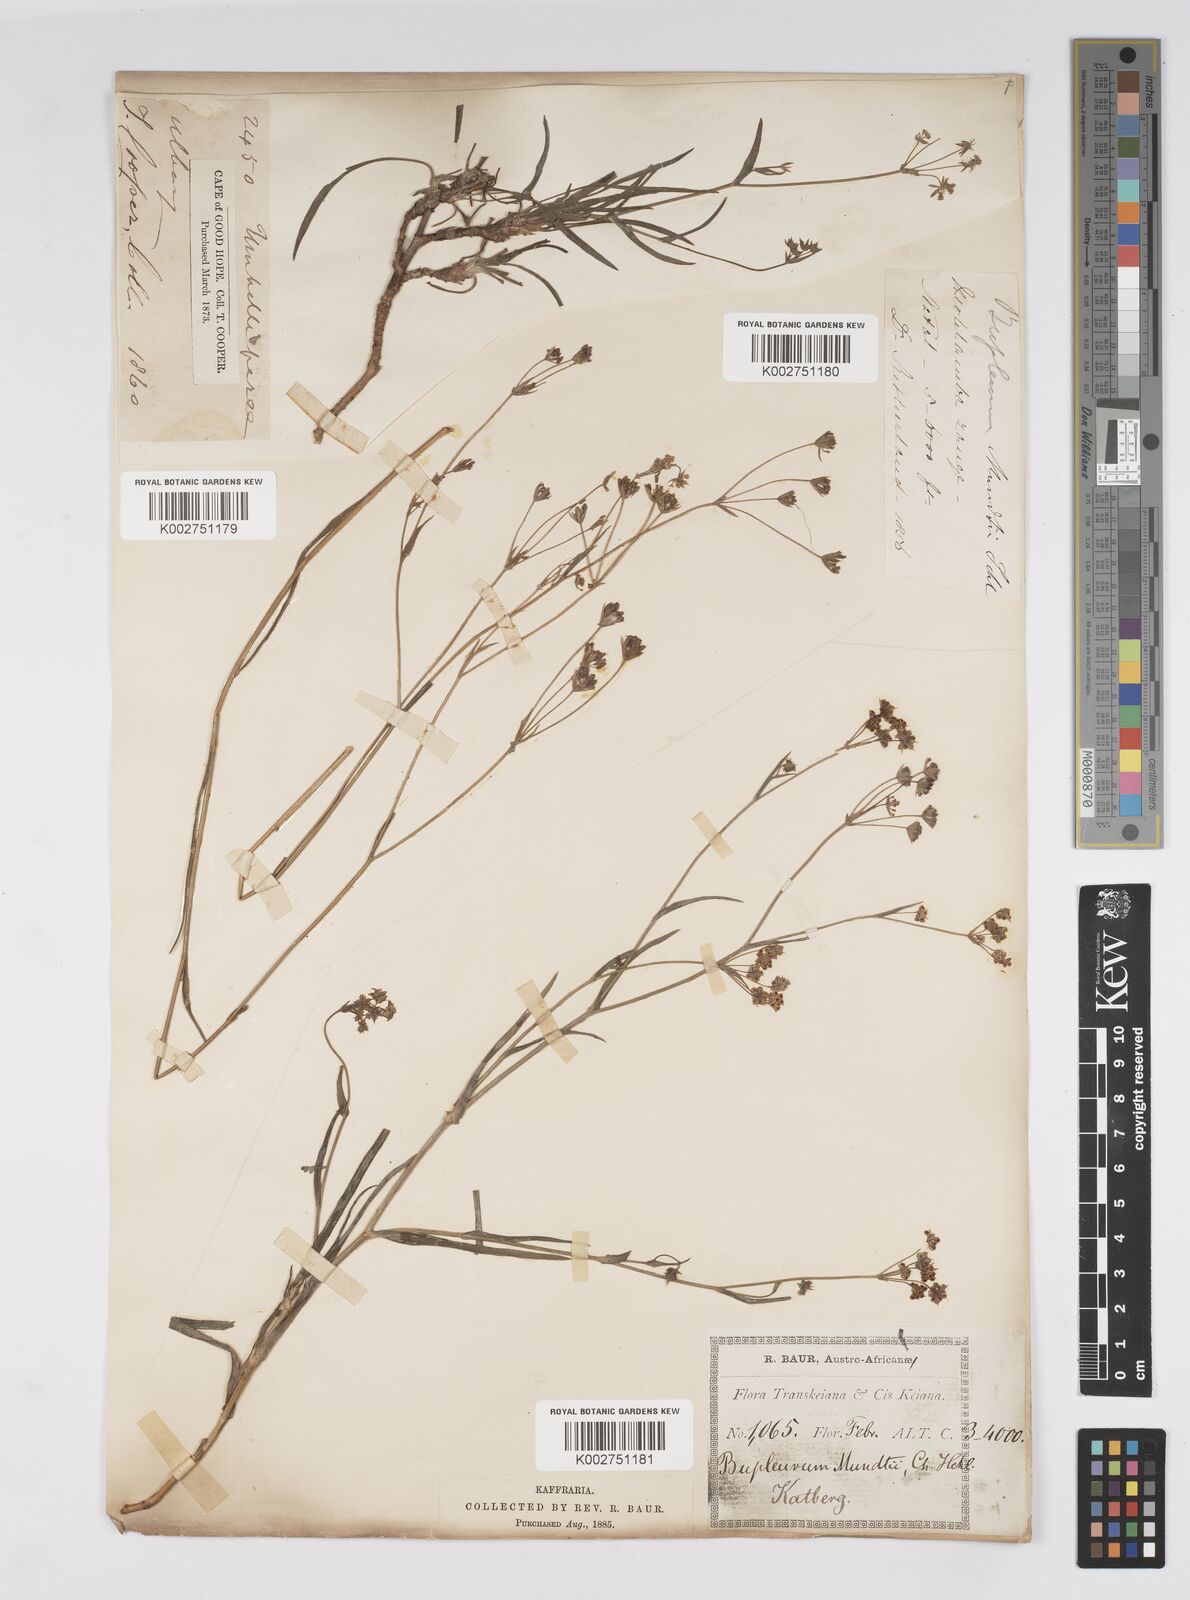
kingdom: Plantae
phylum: Tracheophyta
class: Magnoliopsida
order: Apiales
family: Apiaceae
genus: Bupleurum
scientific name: Bupleurum mundii
